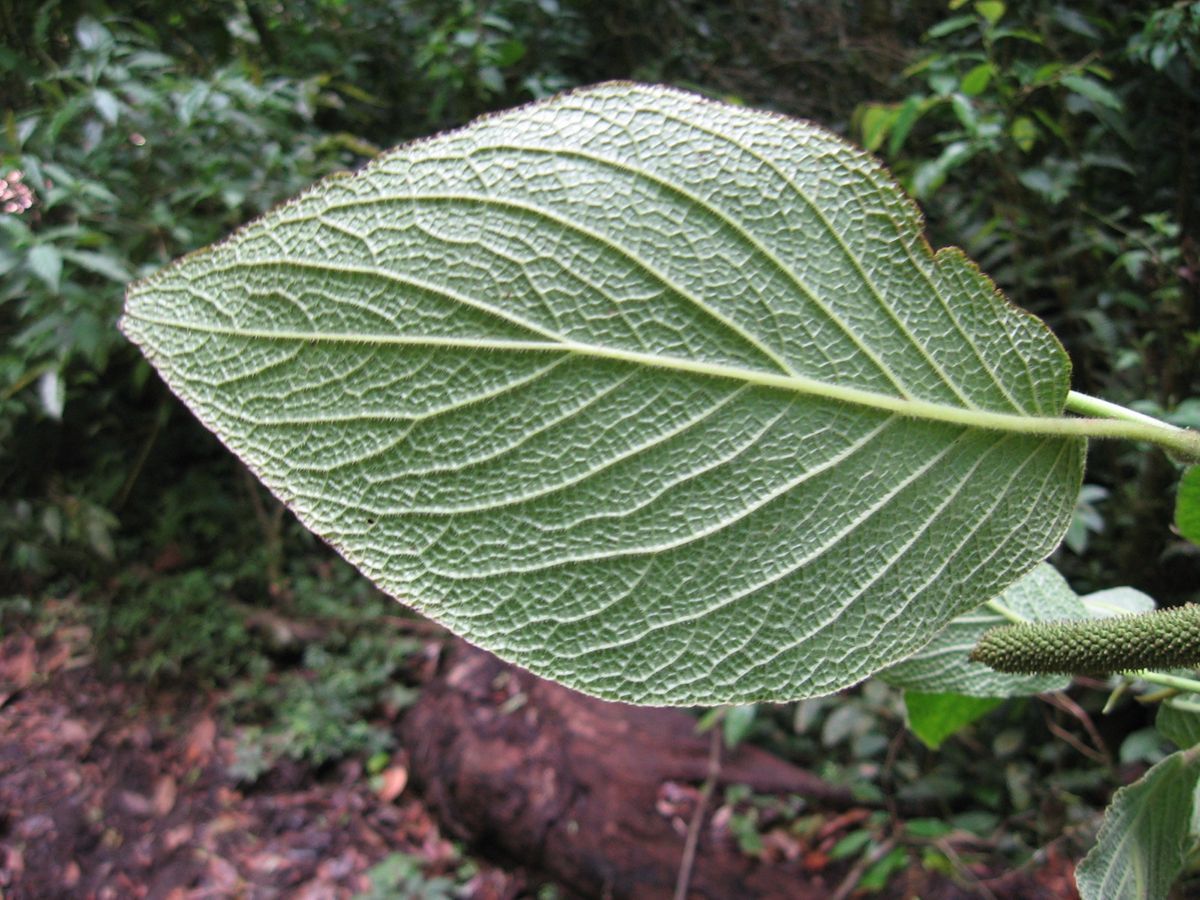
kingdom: Plantae
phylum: Tracheophyta
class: Magnoliopsida
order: Piperales
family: Piperaceae
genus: Piper
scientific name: Piper lacunosum
